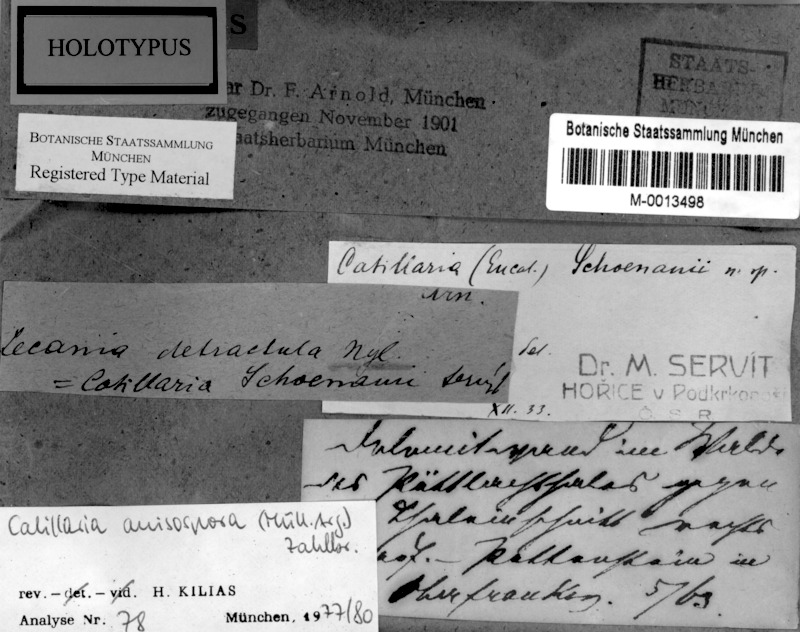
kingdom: Fungi
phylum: Ascomycota
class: Lecanoromycetes
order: Lecanorales
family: Catillariaceae
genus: Catillaria
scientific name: Catillaria anisospora
